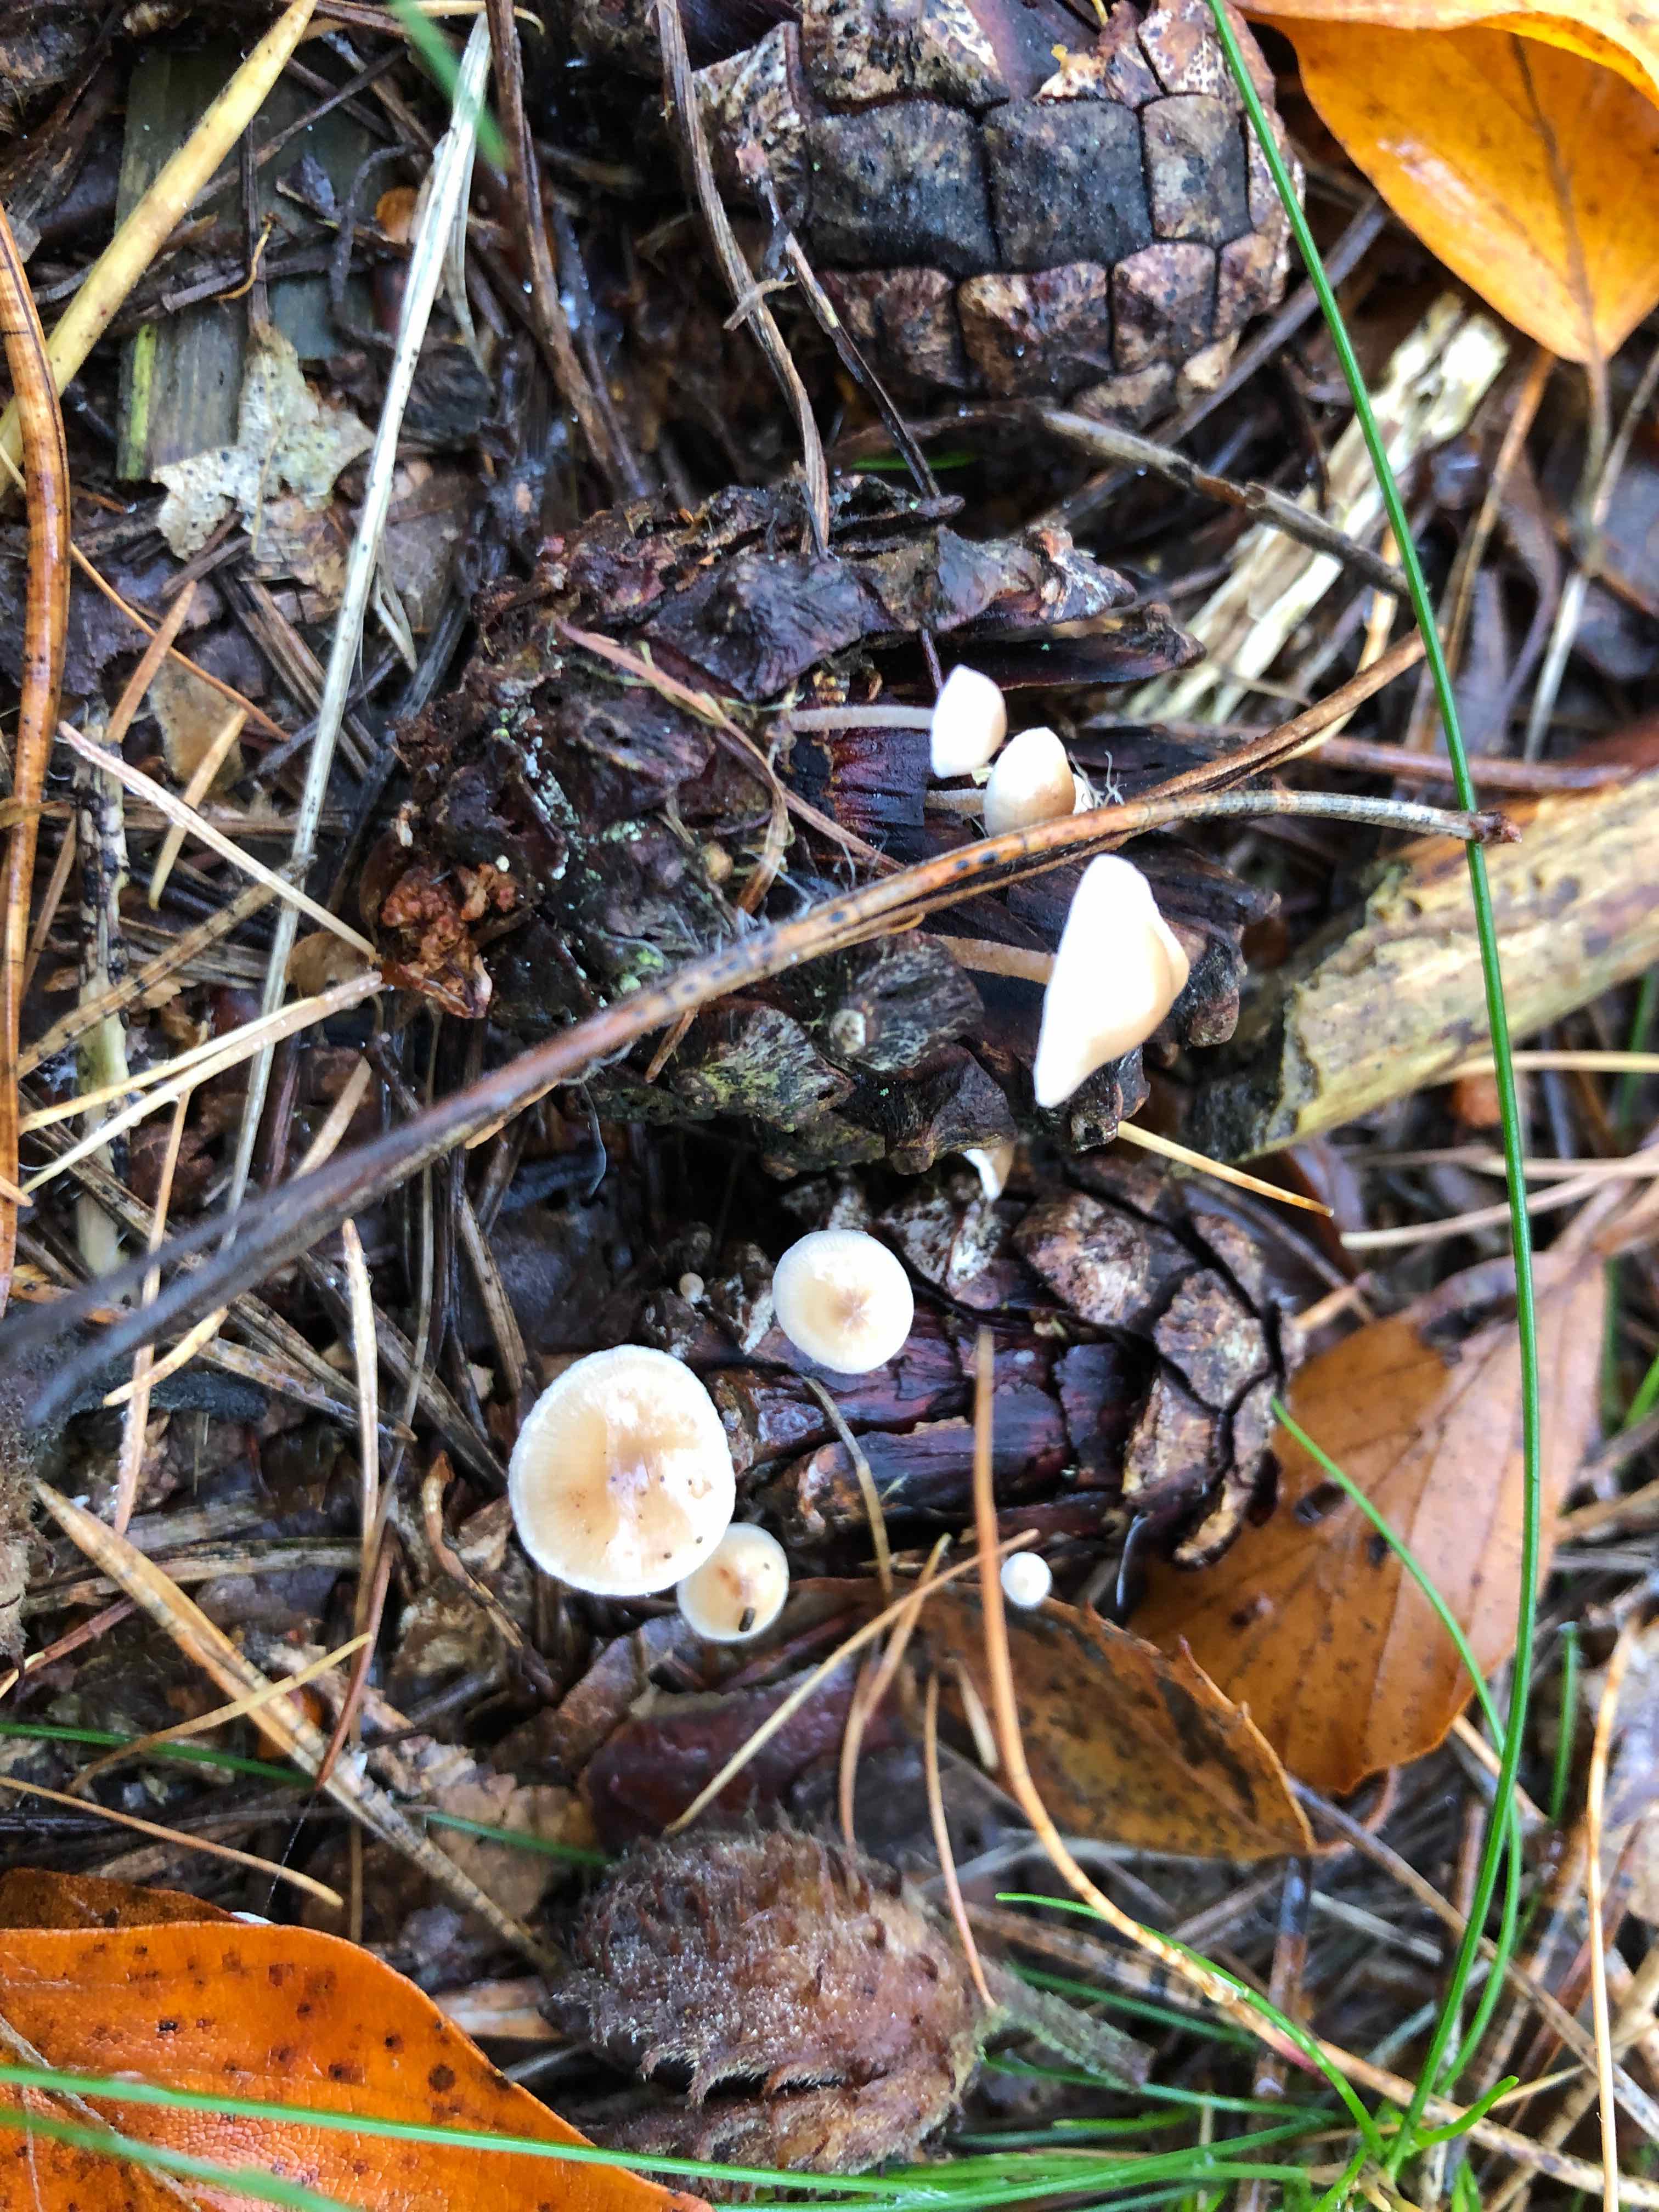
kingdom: Fungi
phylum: Basidiomycota
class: Agaricomycetes
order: Agaricales
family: Marasmiaceae
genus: Baeospora
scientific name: Baeospora myosura
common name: koglebruskhat
